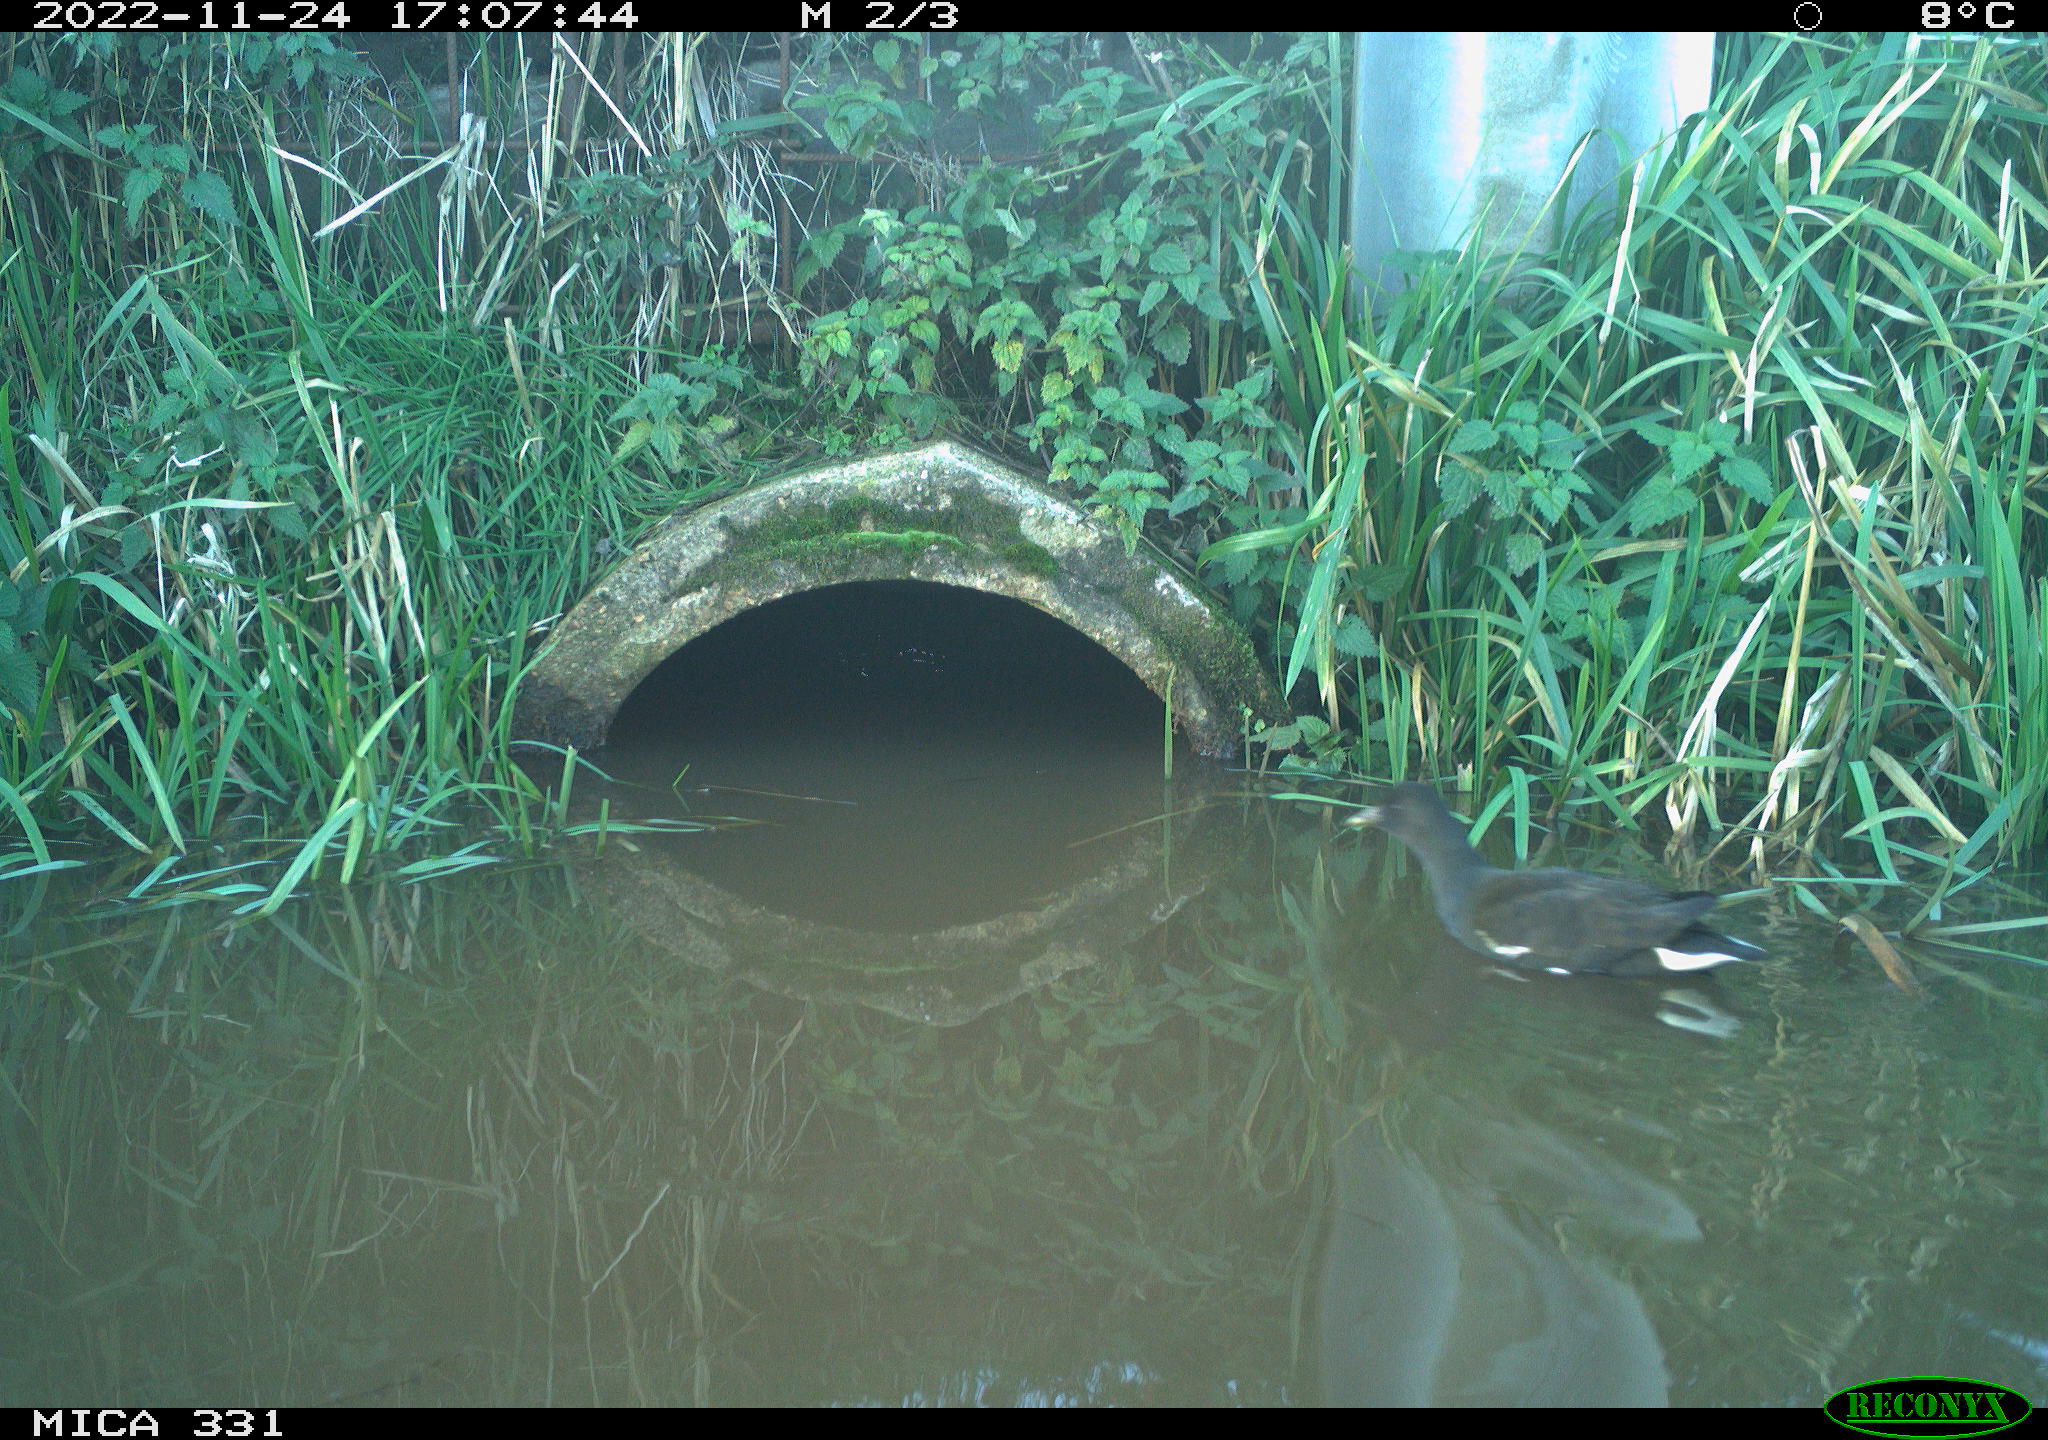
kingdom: Animalia
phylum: Chordata
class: Aves
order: Gruiformes
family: Rallidae
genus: Gallinula
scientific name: Gallinula chloropus
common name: Common moorhen
